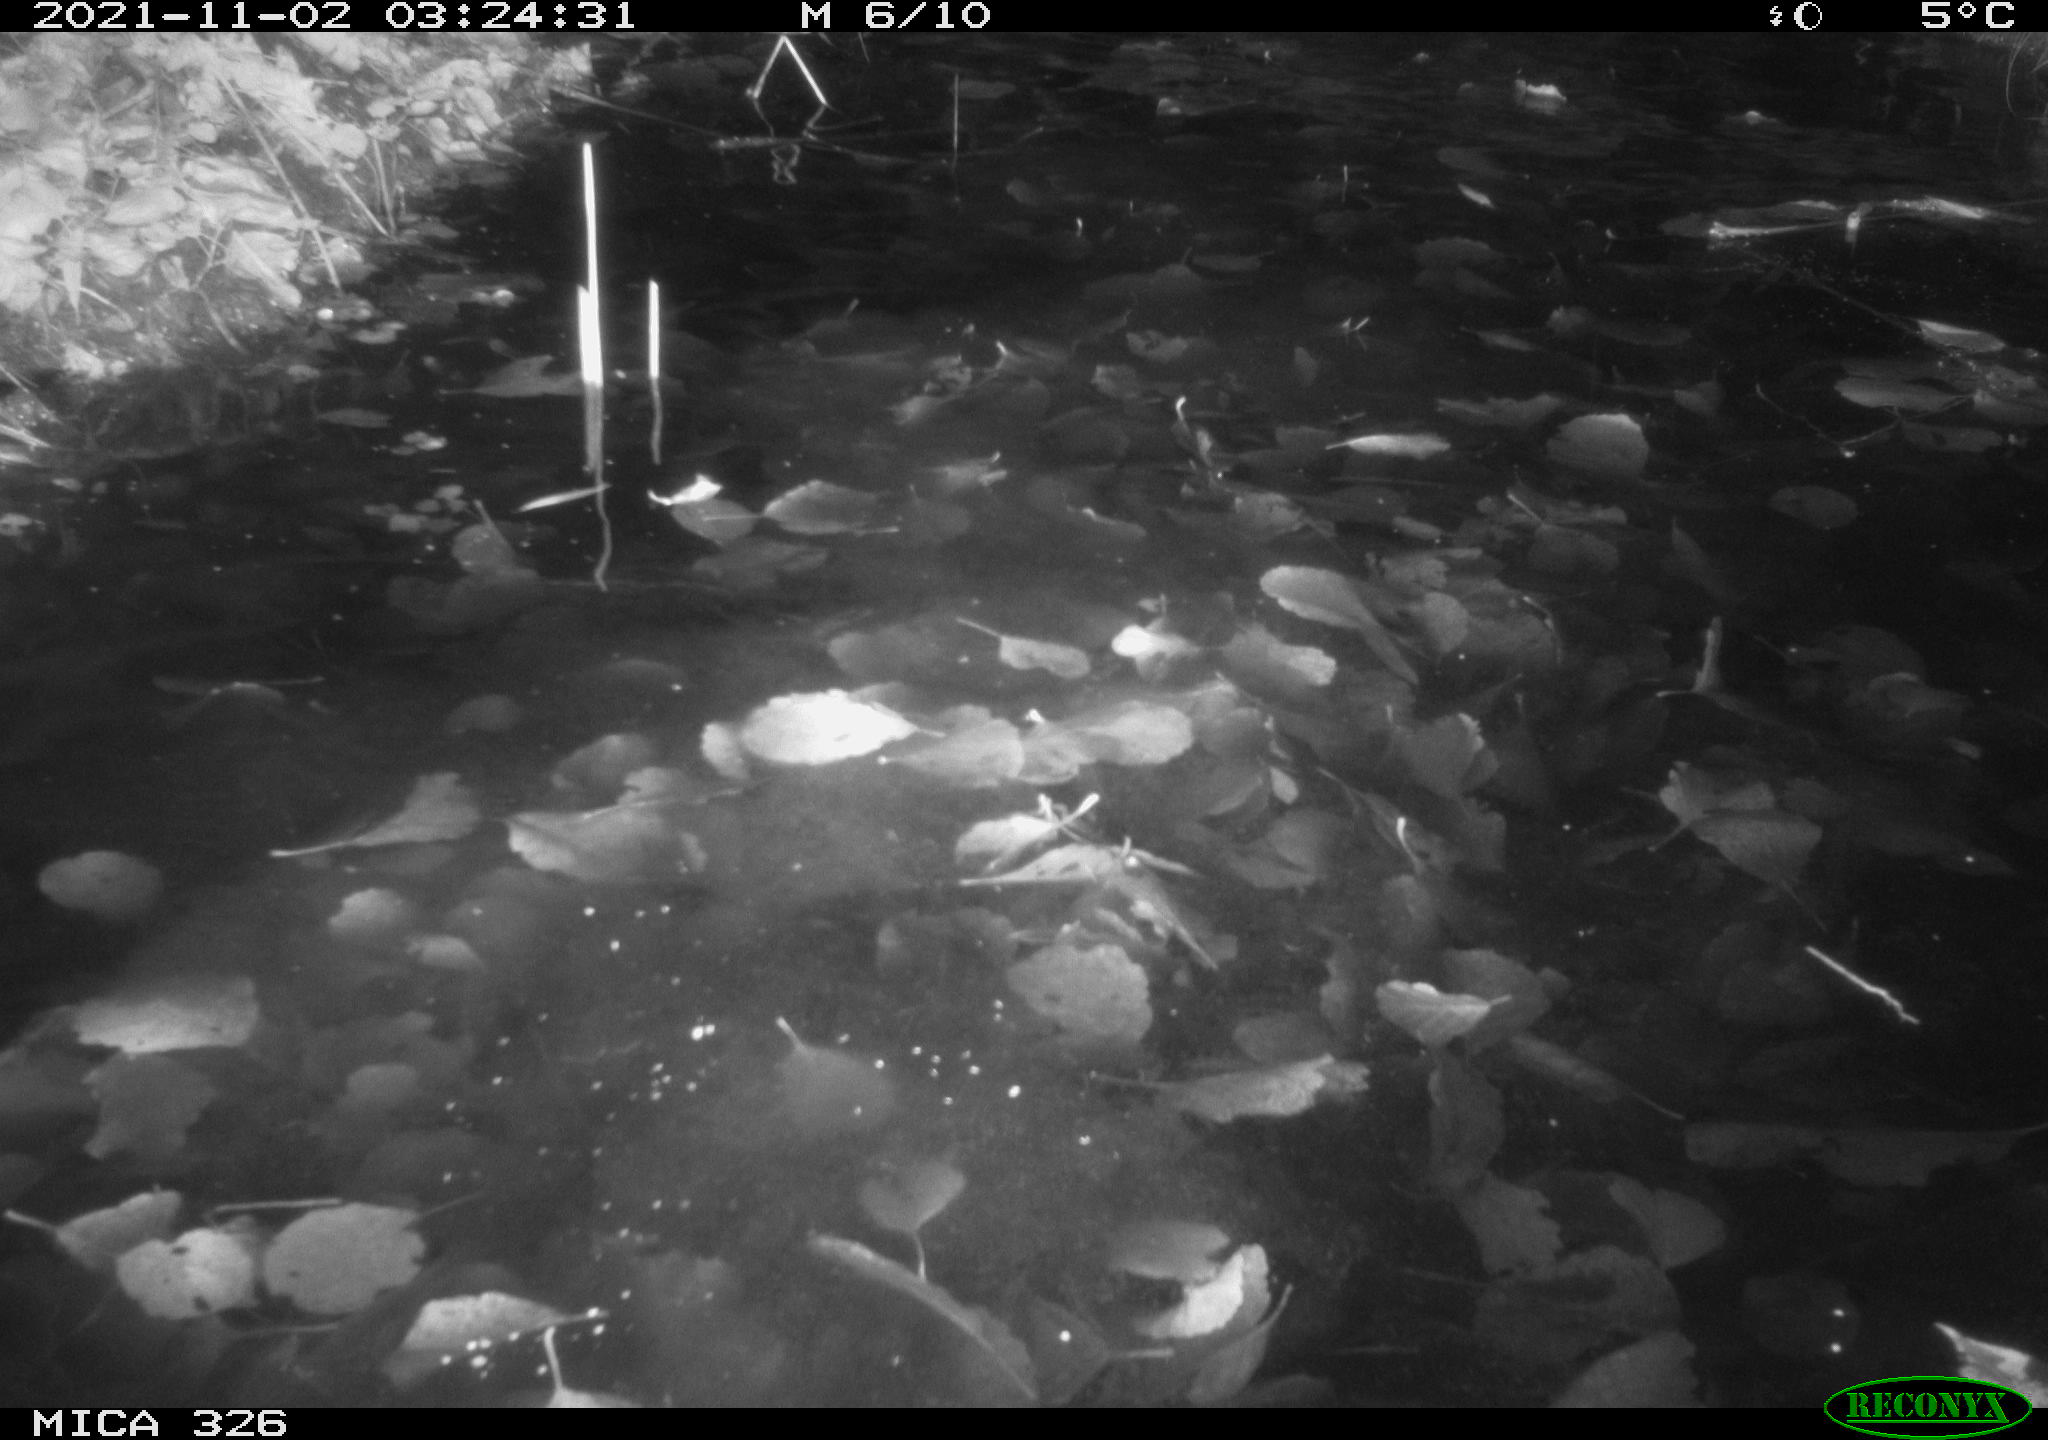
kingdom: Animalia
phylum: Chordata
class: Mammalia
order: Rodentia
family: Myocastoridae
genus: Myocastor
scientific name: Myocastor coypus
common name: Coypu
